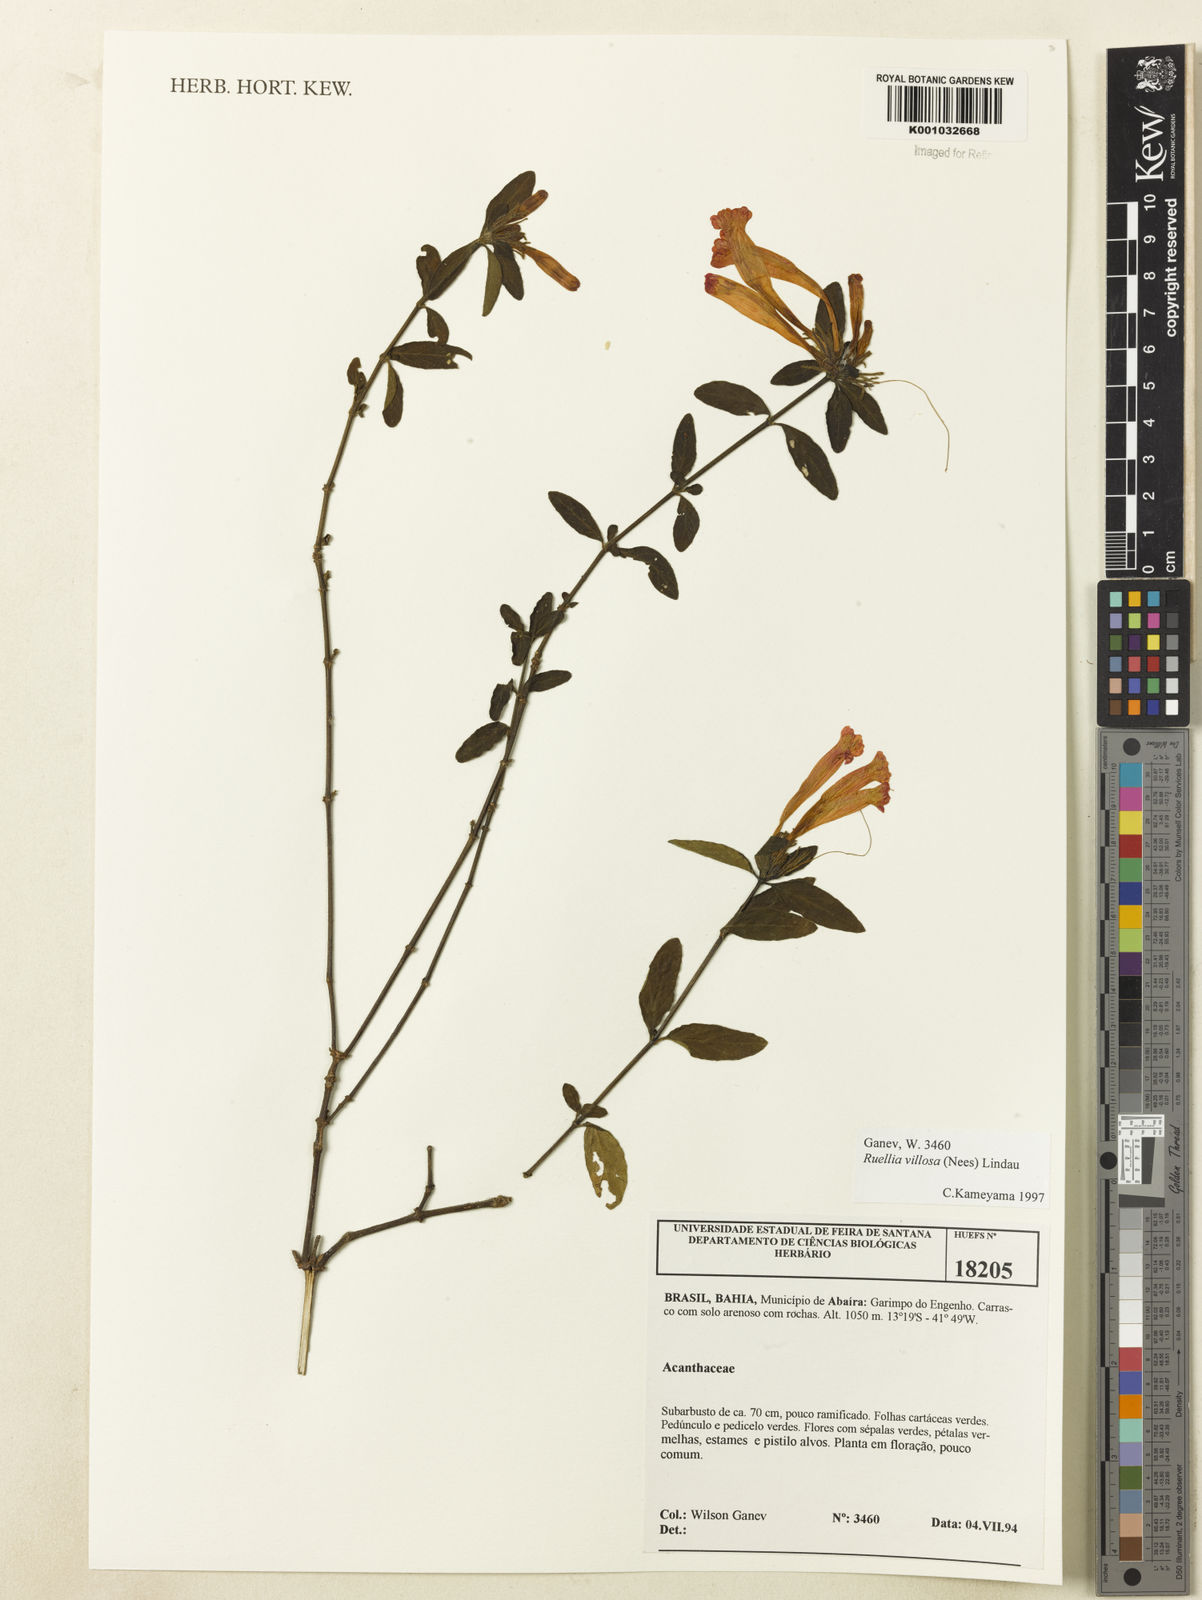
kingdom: Plantae
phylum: Tracheophyta
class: Magnoliopsida
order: Lamiales
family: Acanthaceae
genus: Ruellia
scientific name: Ruellia villosa
